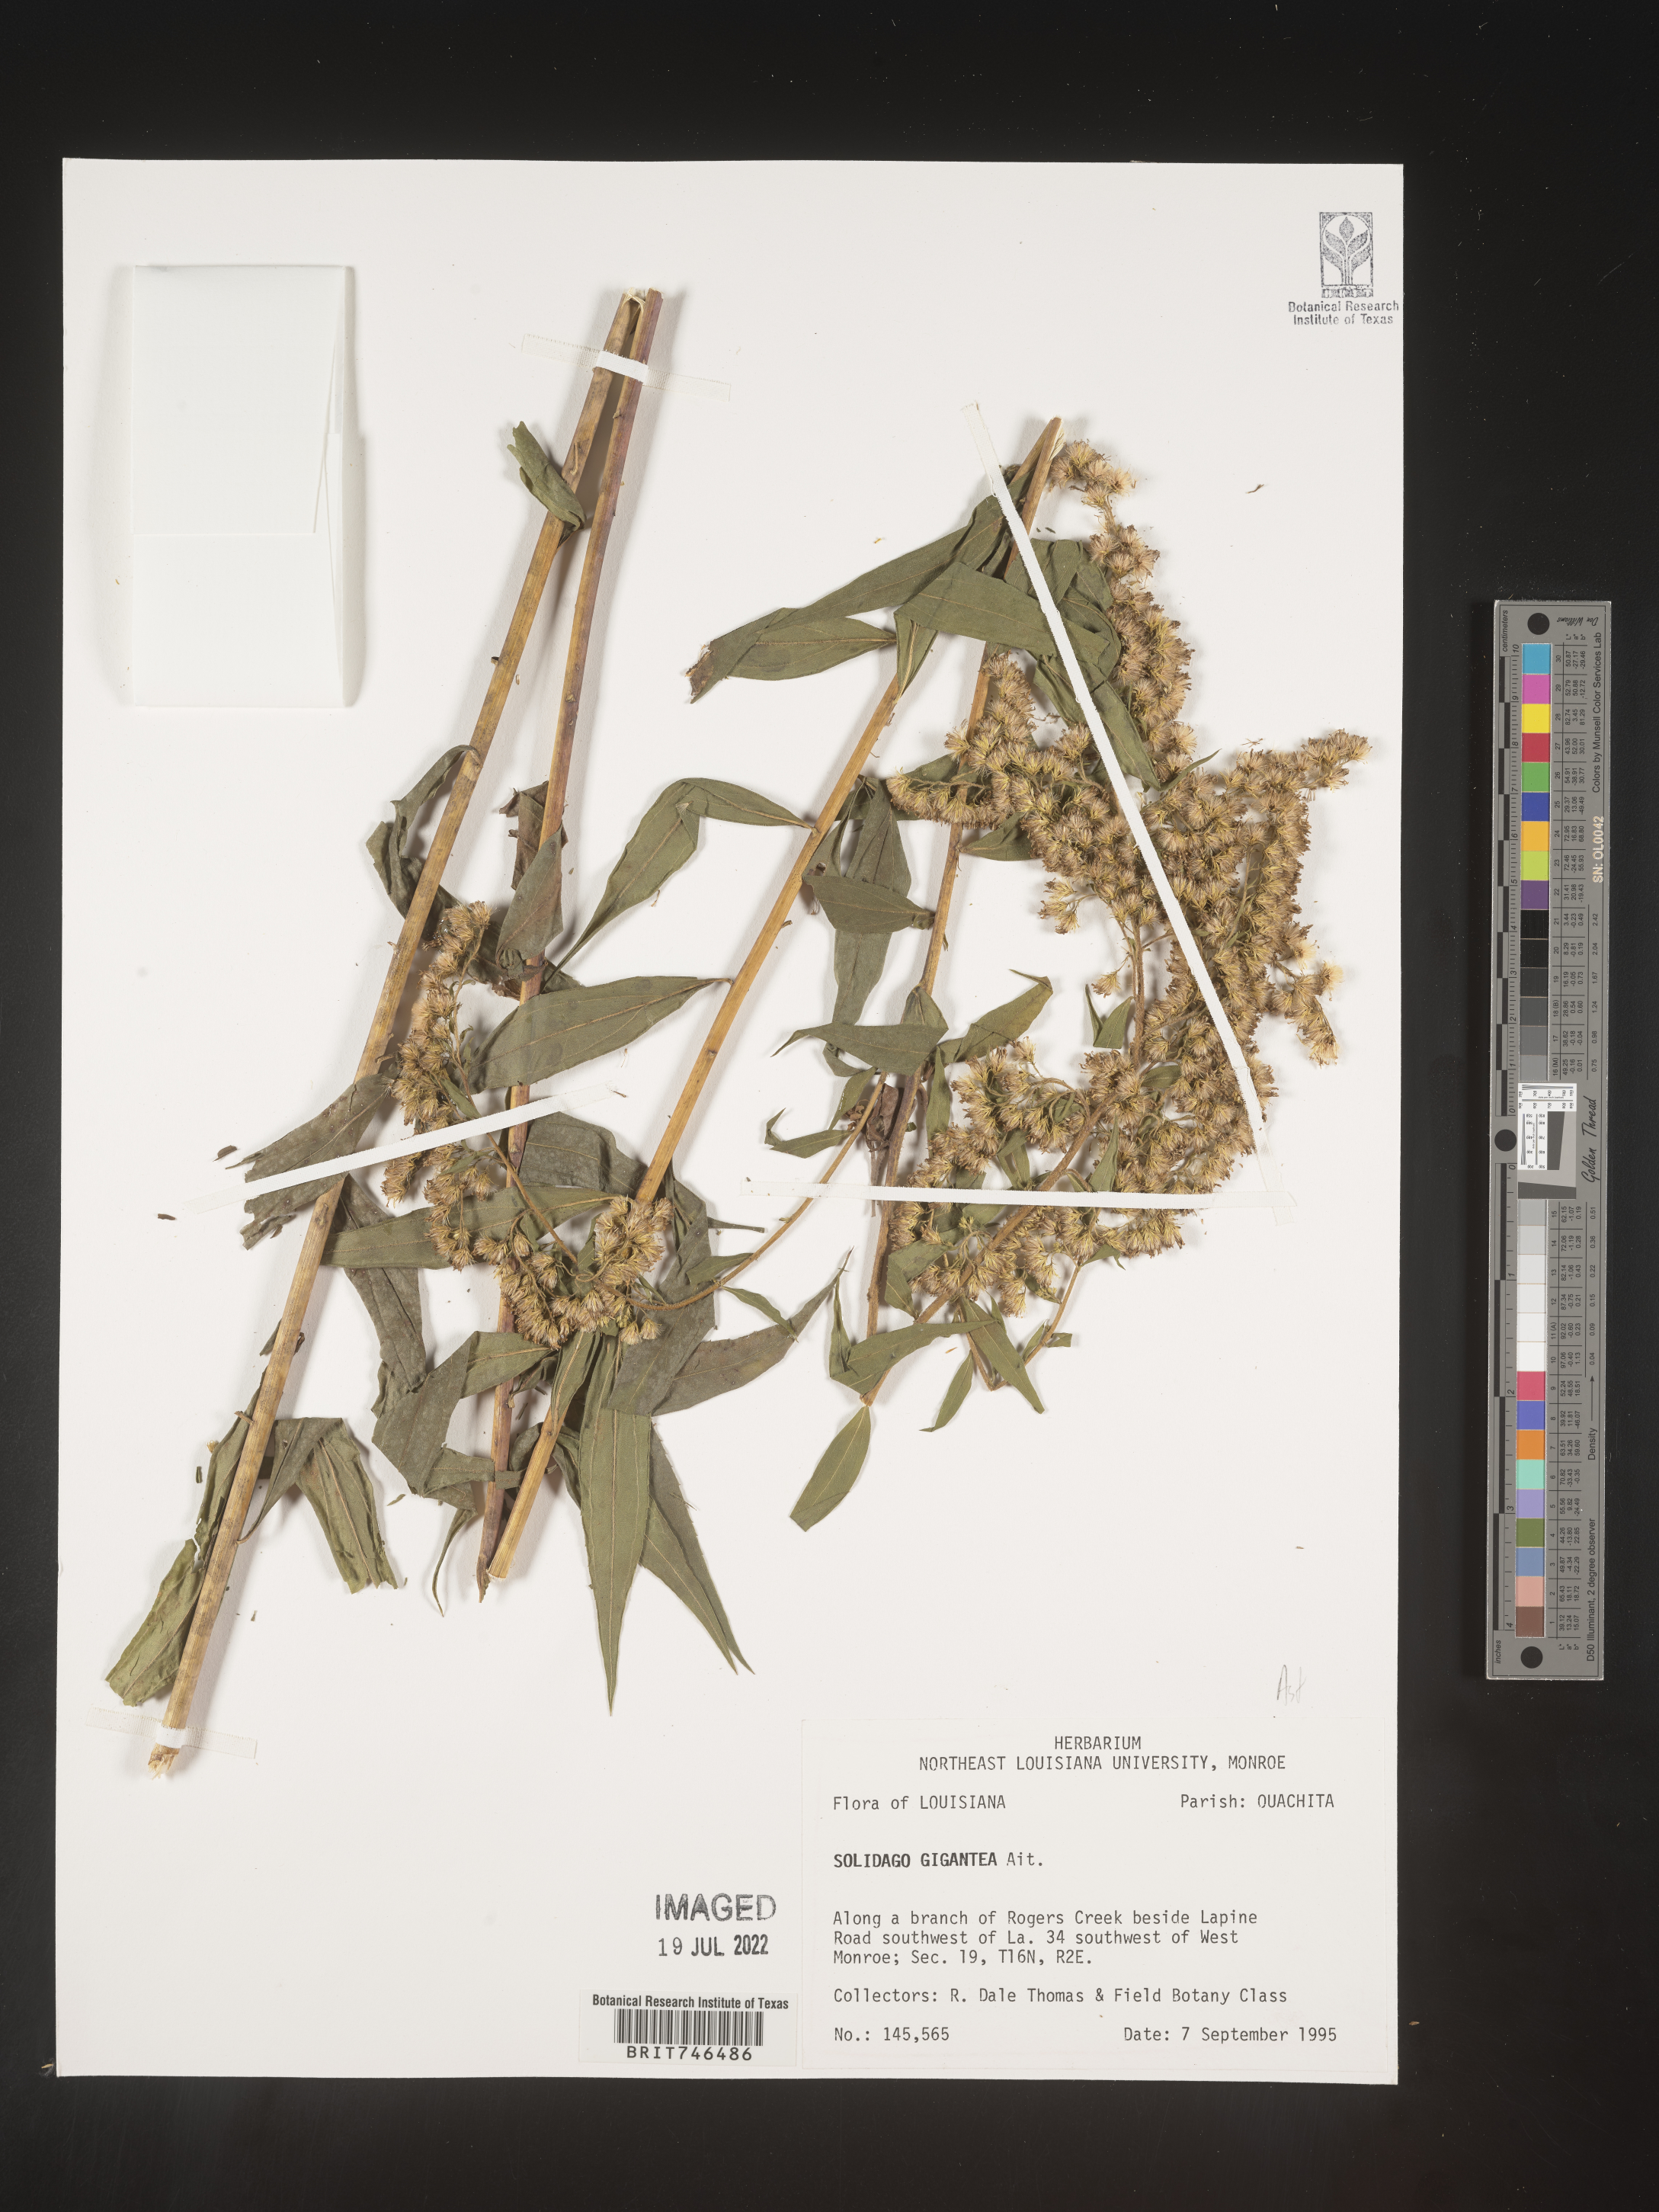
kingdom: Plantae
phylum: Tracheophyta
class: Magnoliopsida
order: Asterales
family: Asteraceae
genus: Solidago
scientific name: Solidago gigantea
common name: Giant goldenrod
